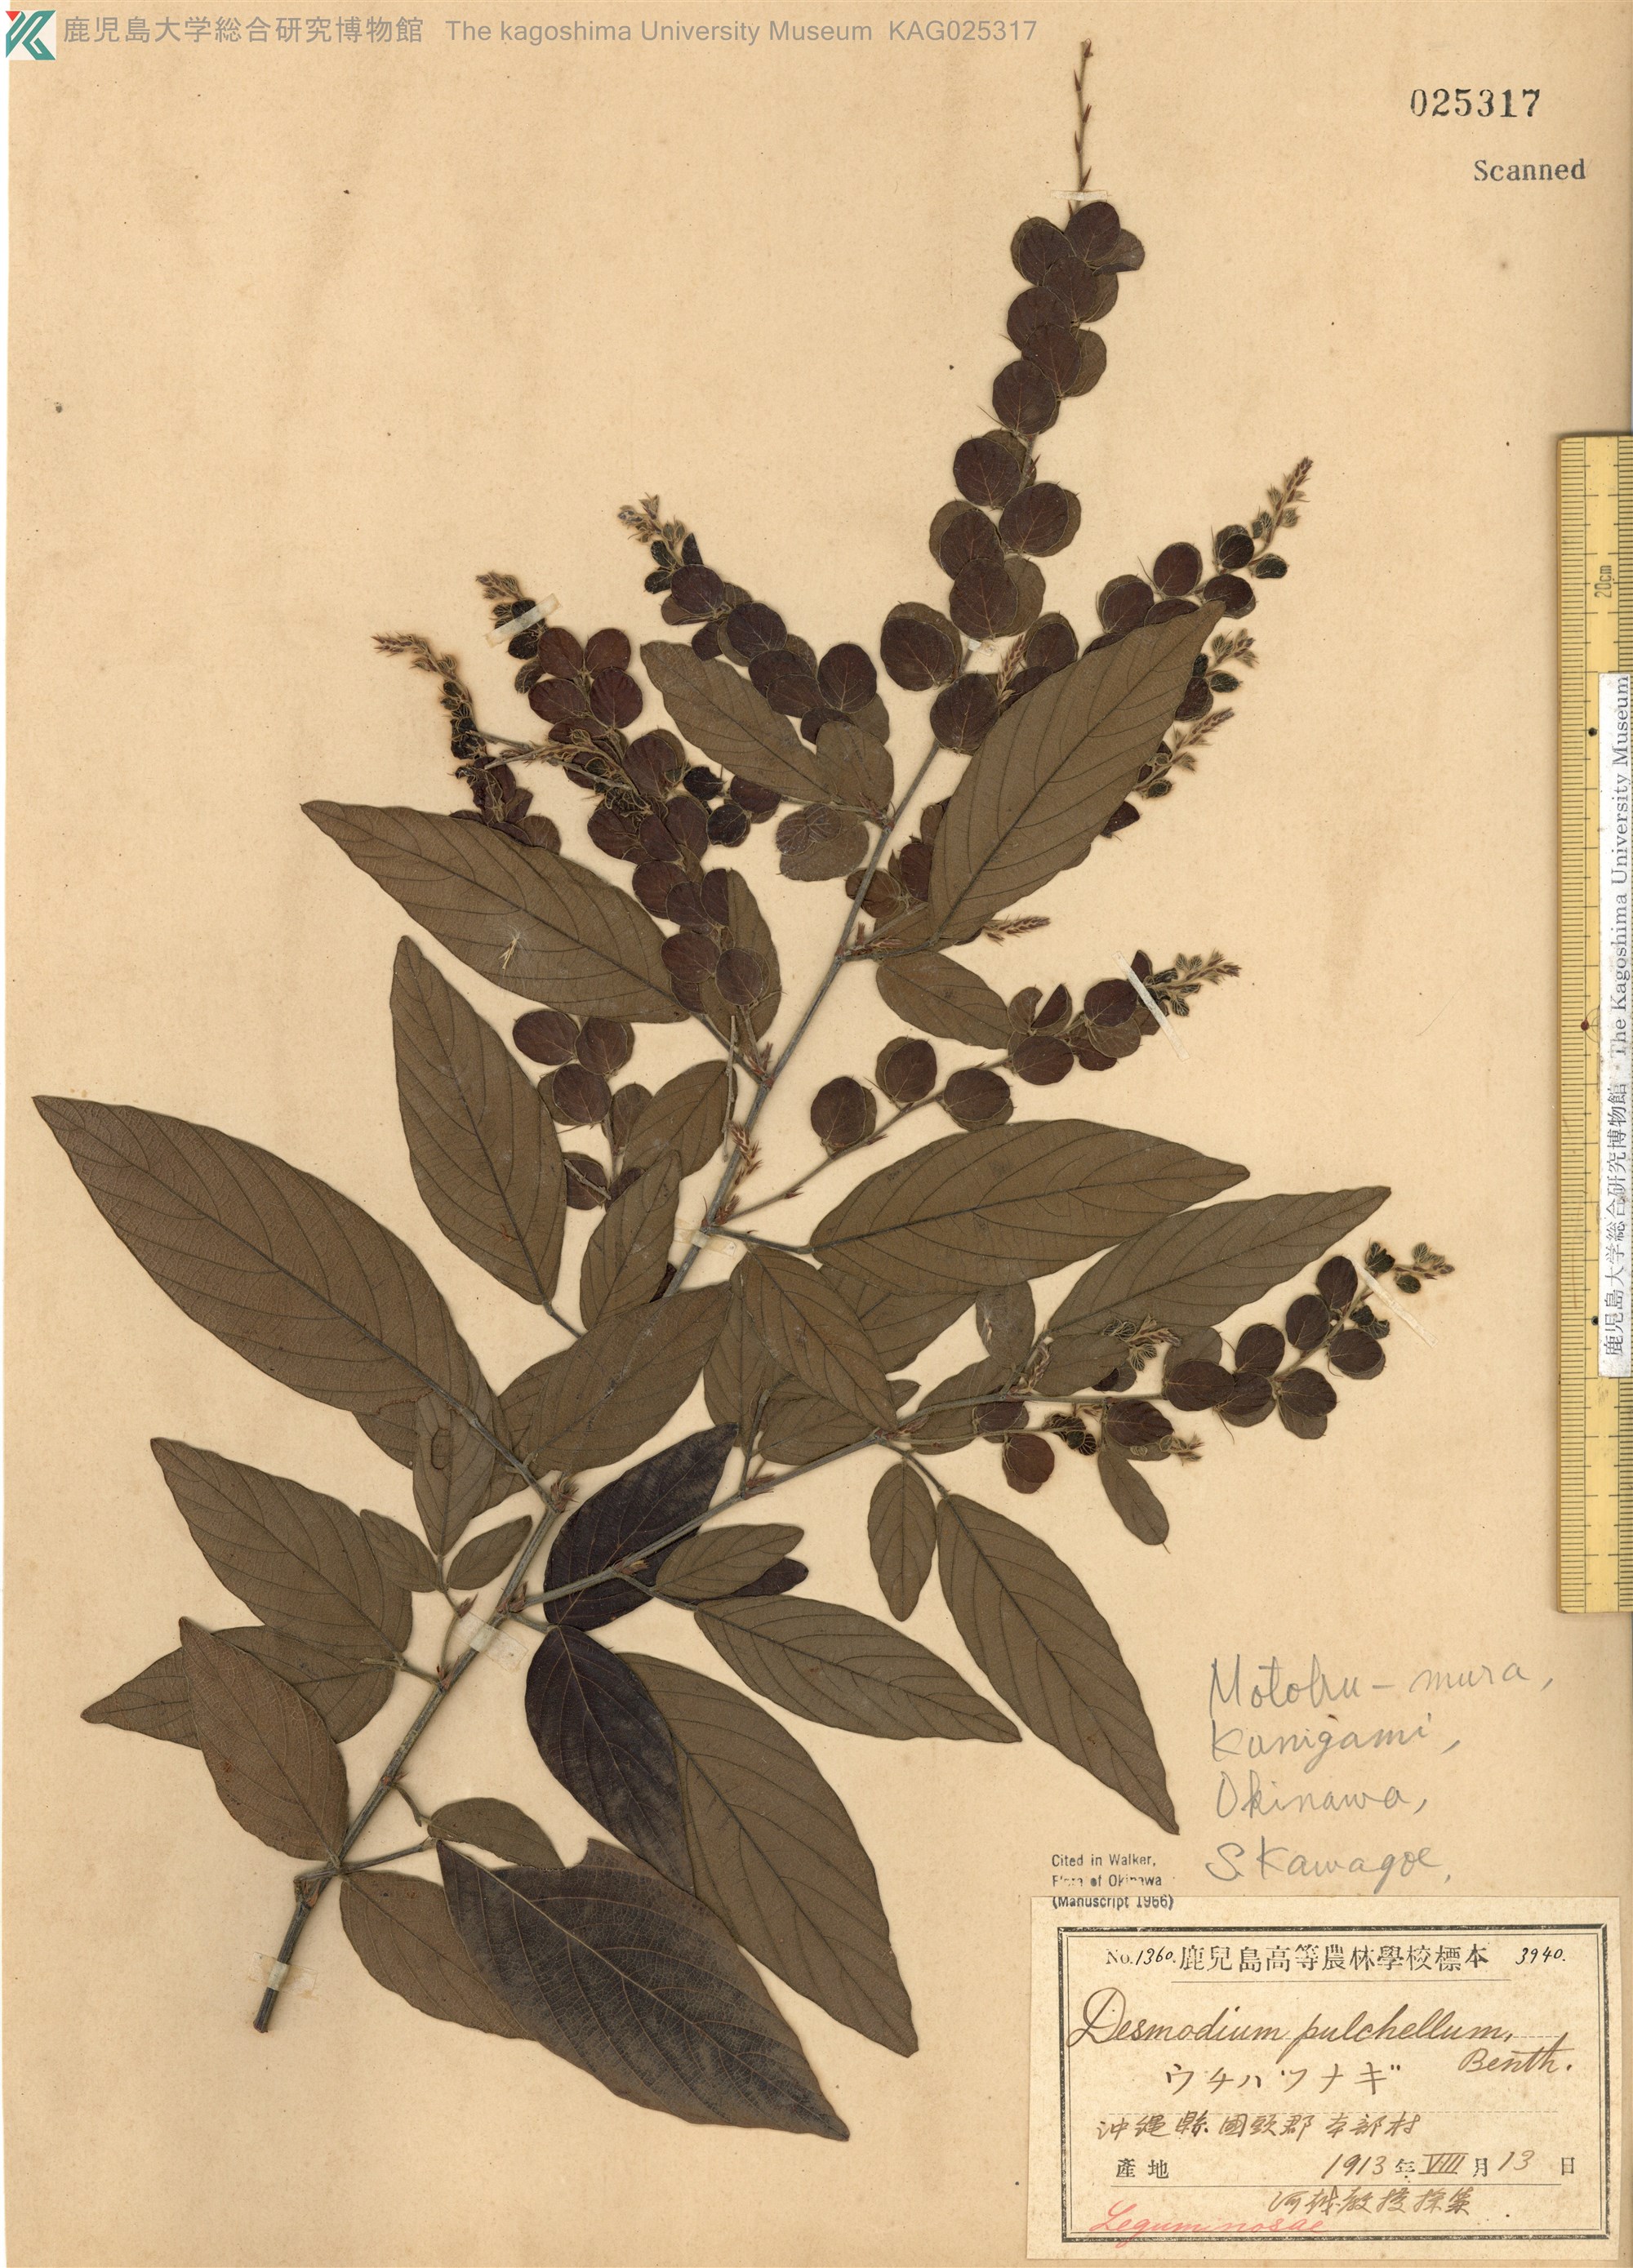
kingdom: Plantae
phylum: Tracheophyta
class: Magnoliopsida
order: Fabales
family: Fabaceae
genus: Phyllodium
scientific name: Phyllodium pulchellum
